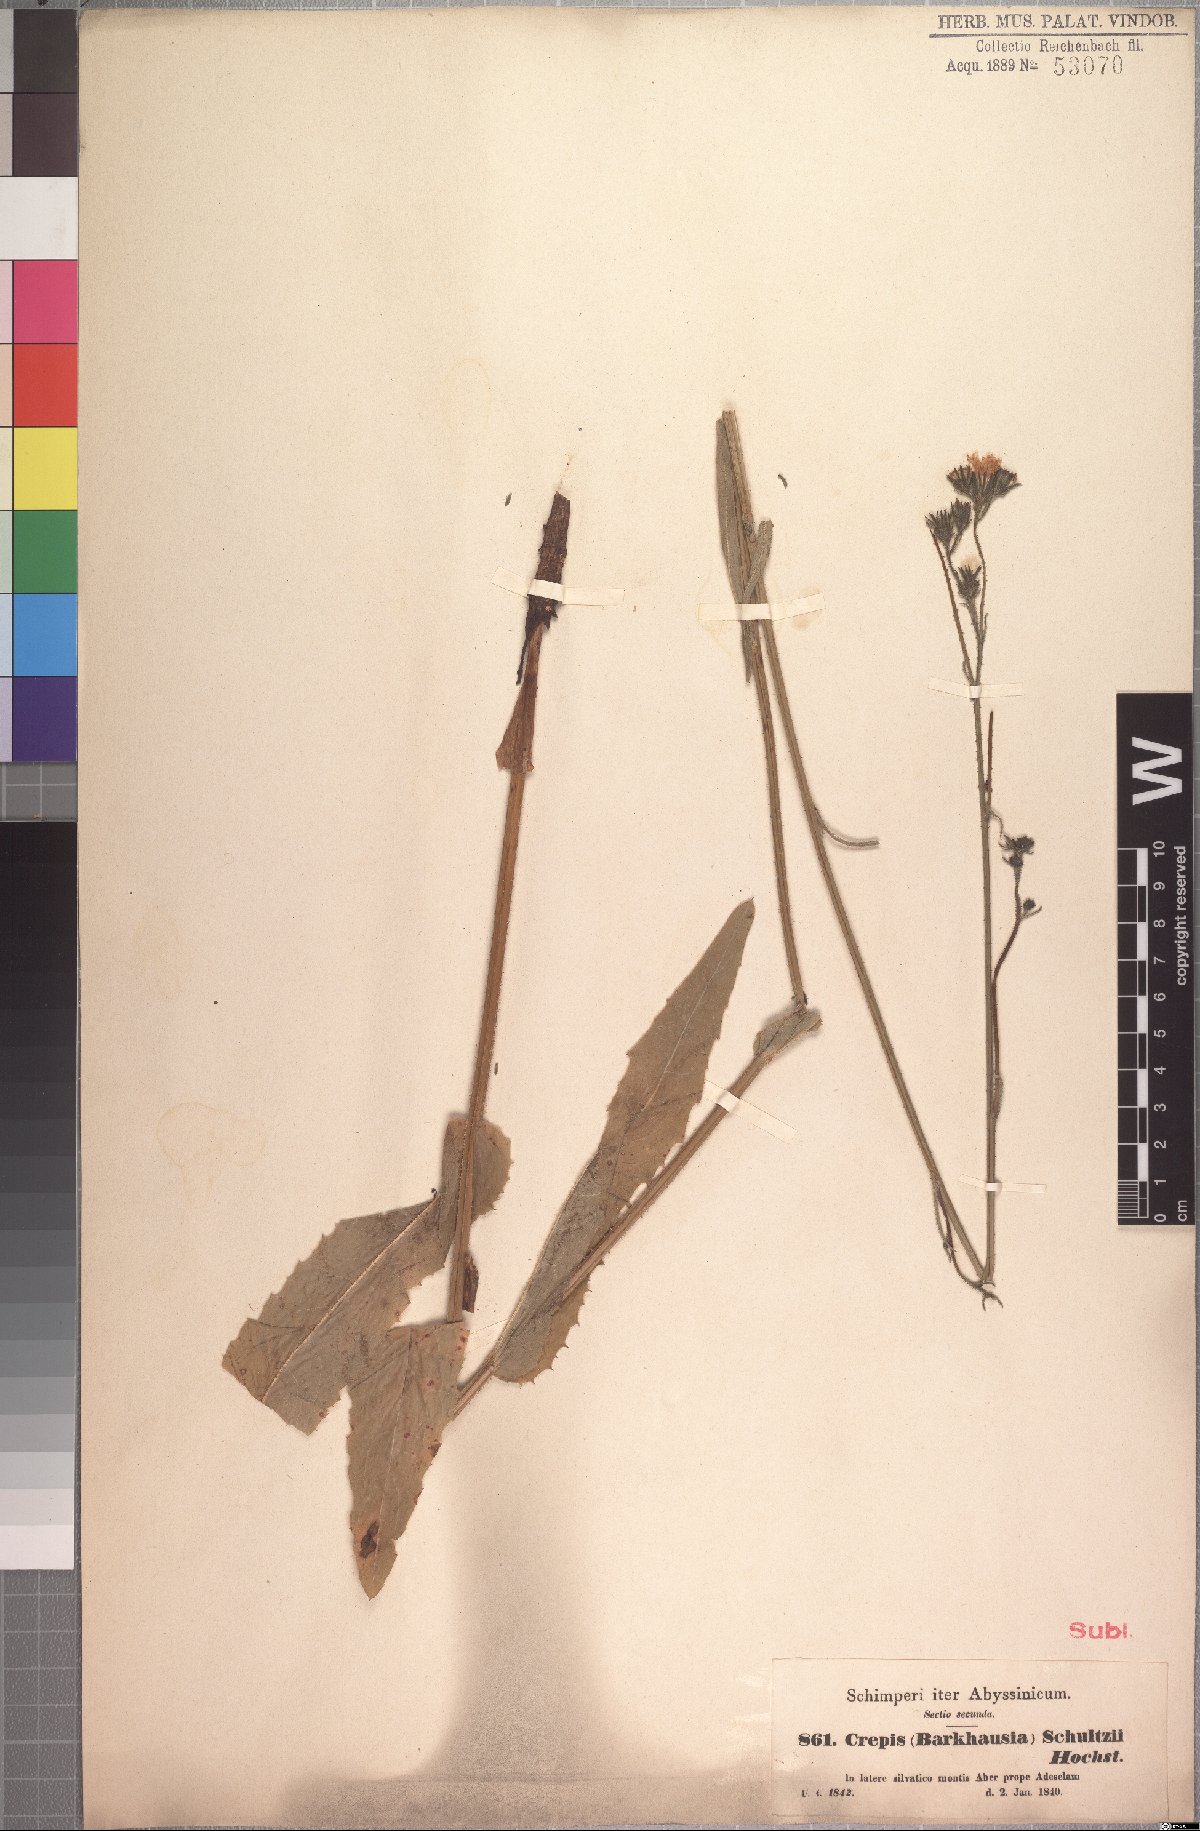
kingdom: Plantae
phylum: Tracheophyta
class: Magnoliopsida
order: Asterales
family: Asteraceae
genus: Crepis
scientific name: Crepis schultzii
